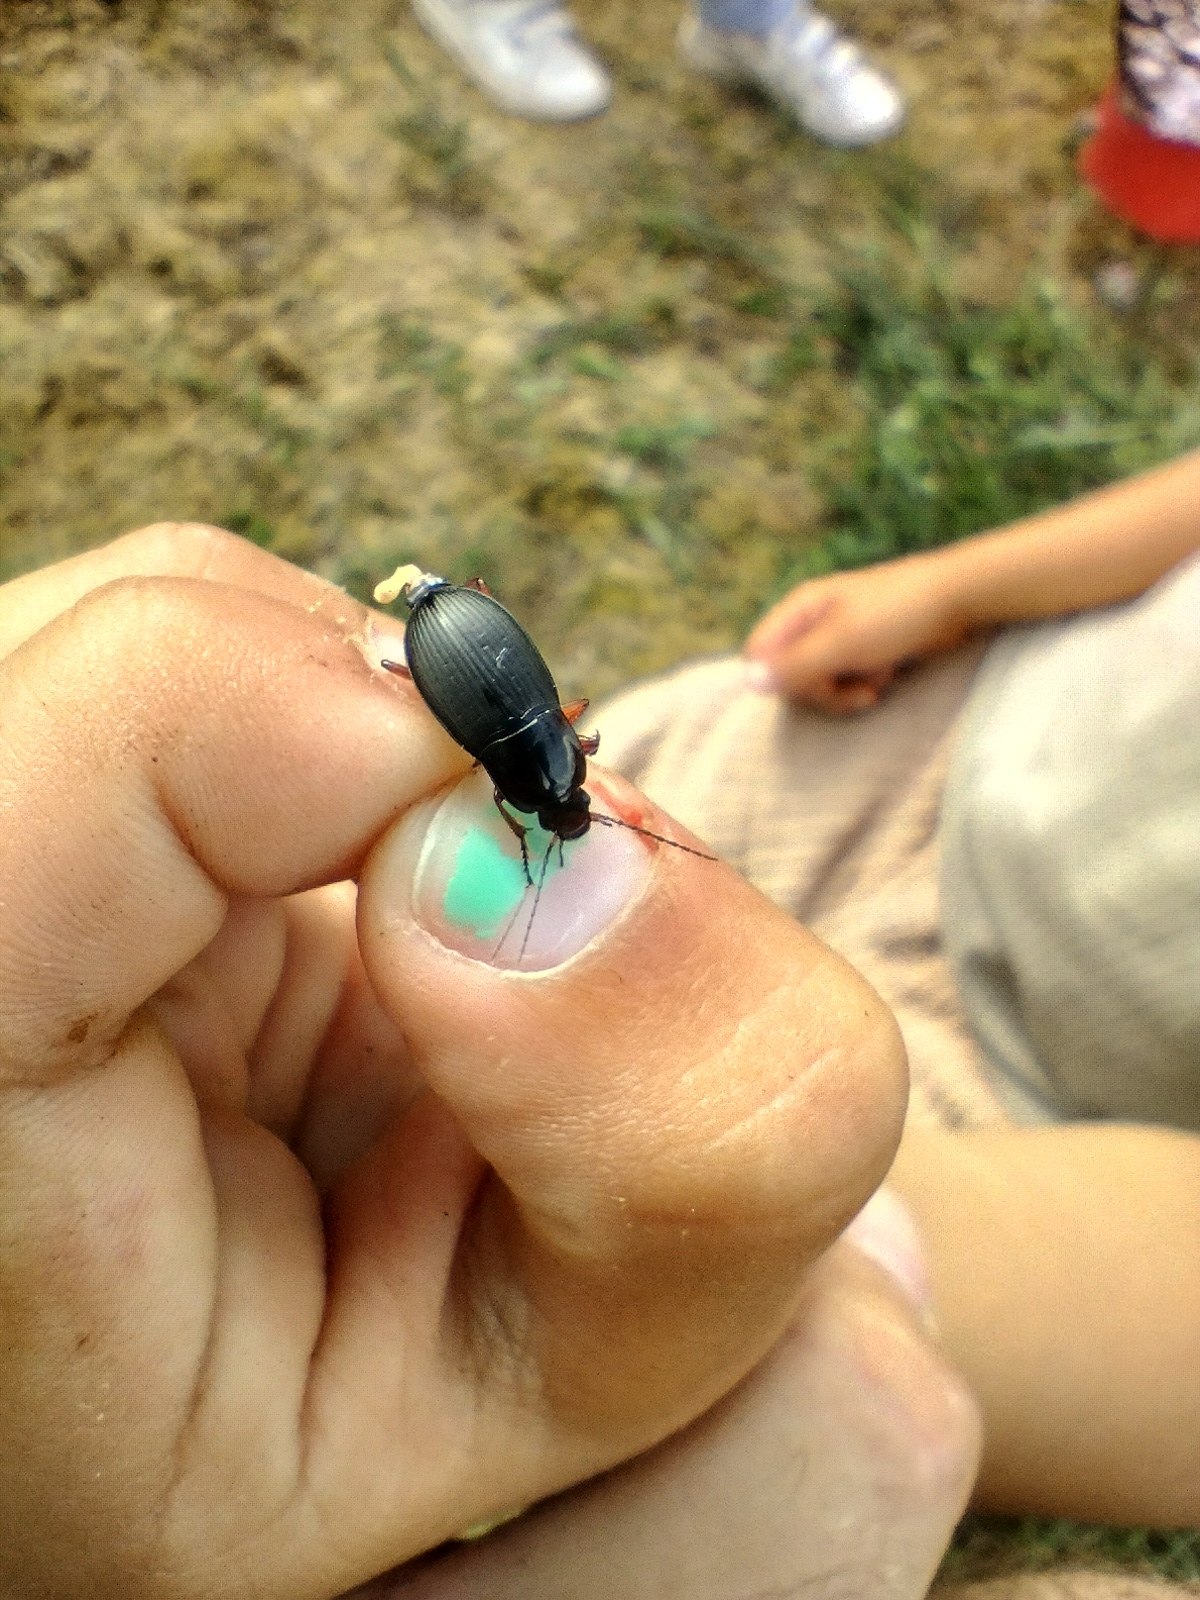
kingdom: Animalia
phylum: Arthropoda
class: Insecta
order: Coleoptera
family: Carabidae
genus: Calathus
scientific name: Calathus fuscipes
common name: Stor torpedoløber
